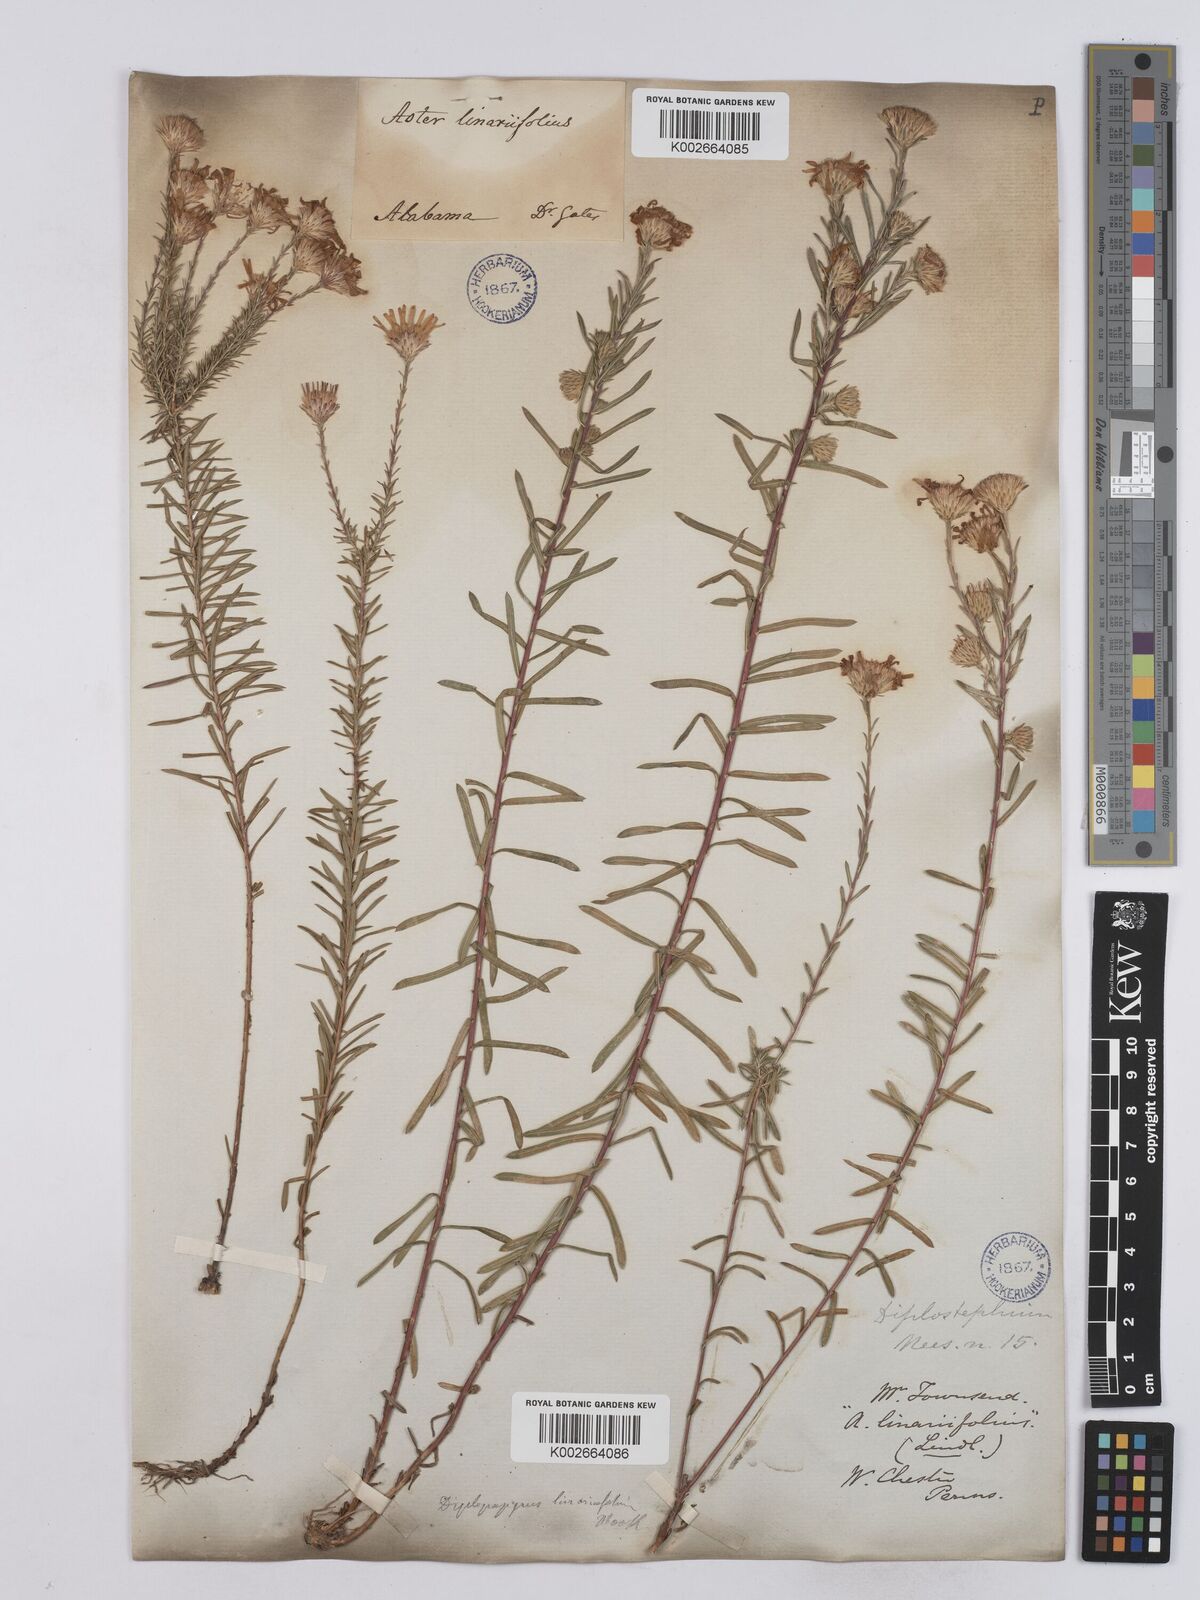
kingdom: Plantae
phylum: Tracheophyta
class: Magnoliopsida
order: Asterales
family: Asteraceae
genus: Ionactis
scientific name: Ionactis linariifolia
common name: Flax-leaf aster
